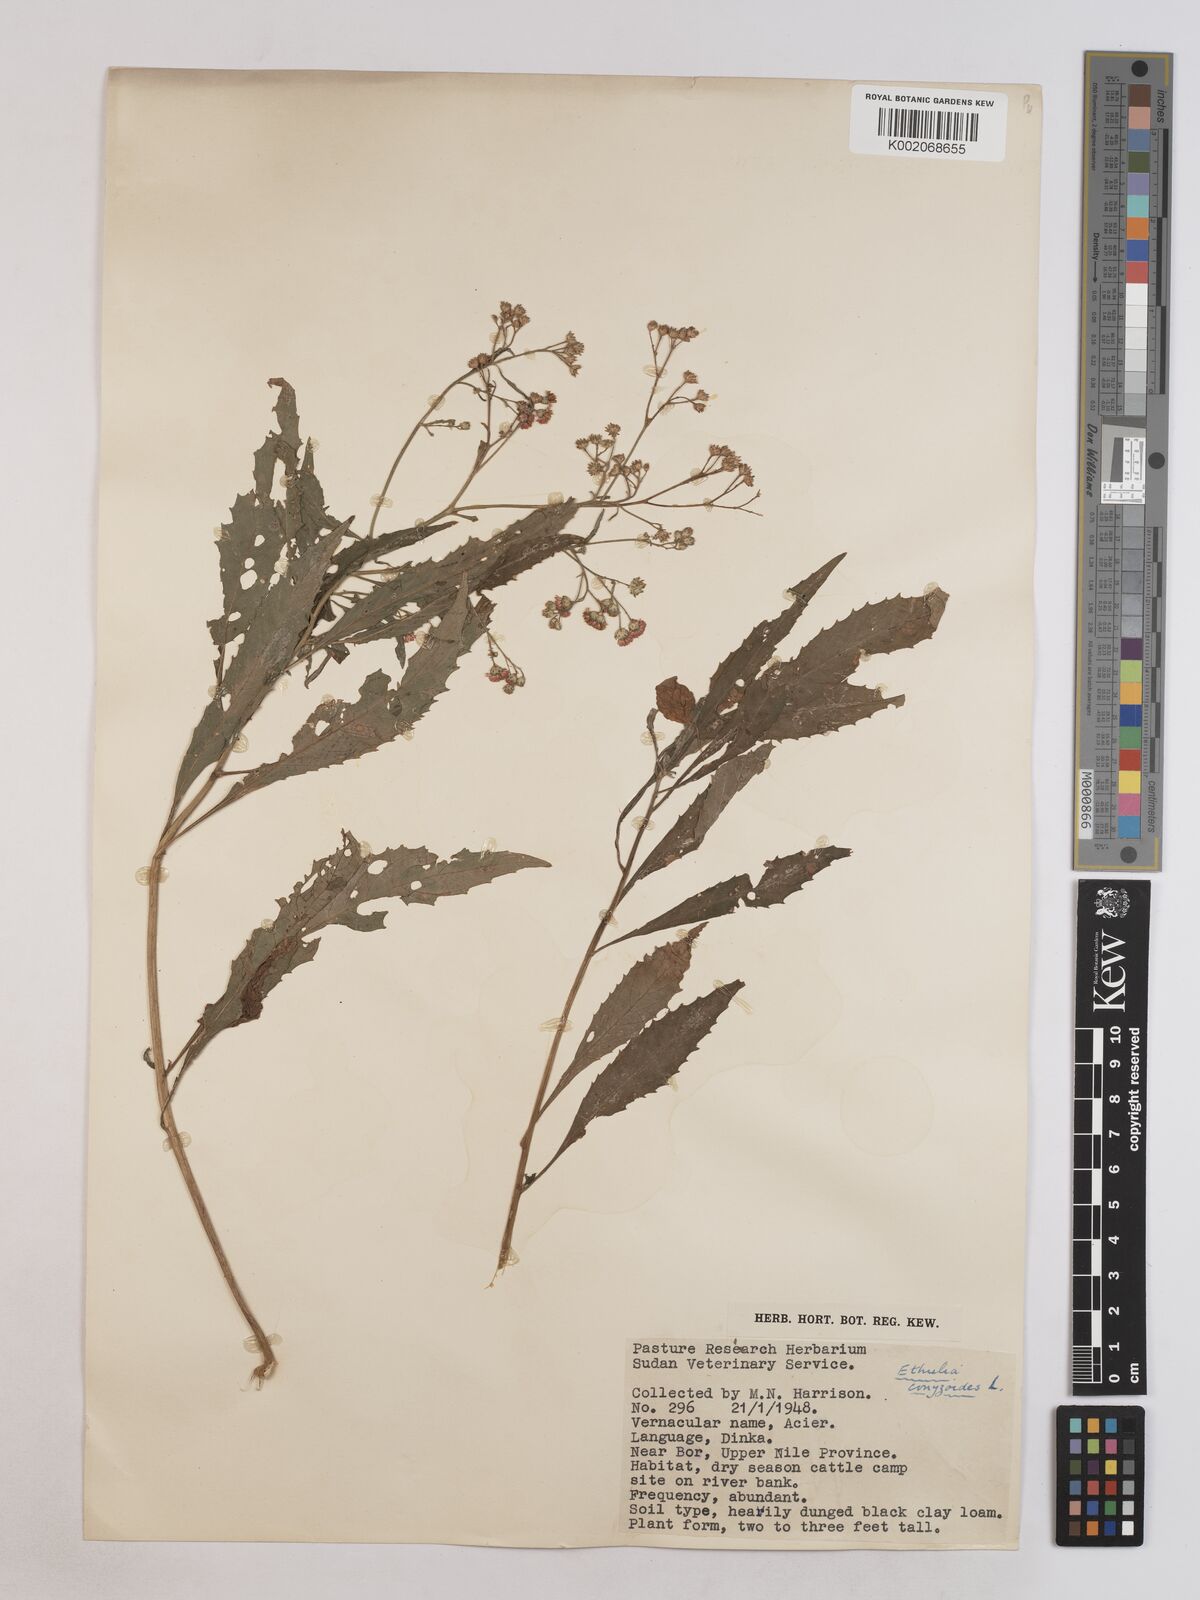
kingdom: Plantae
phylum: Tracheophyta
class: Magnoliopsida
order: Asterales
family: Asteraceae
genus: Ethulia
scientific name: Ethulia gracilis
